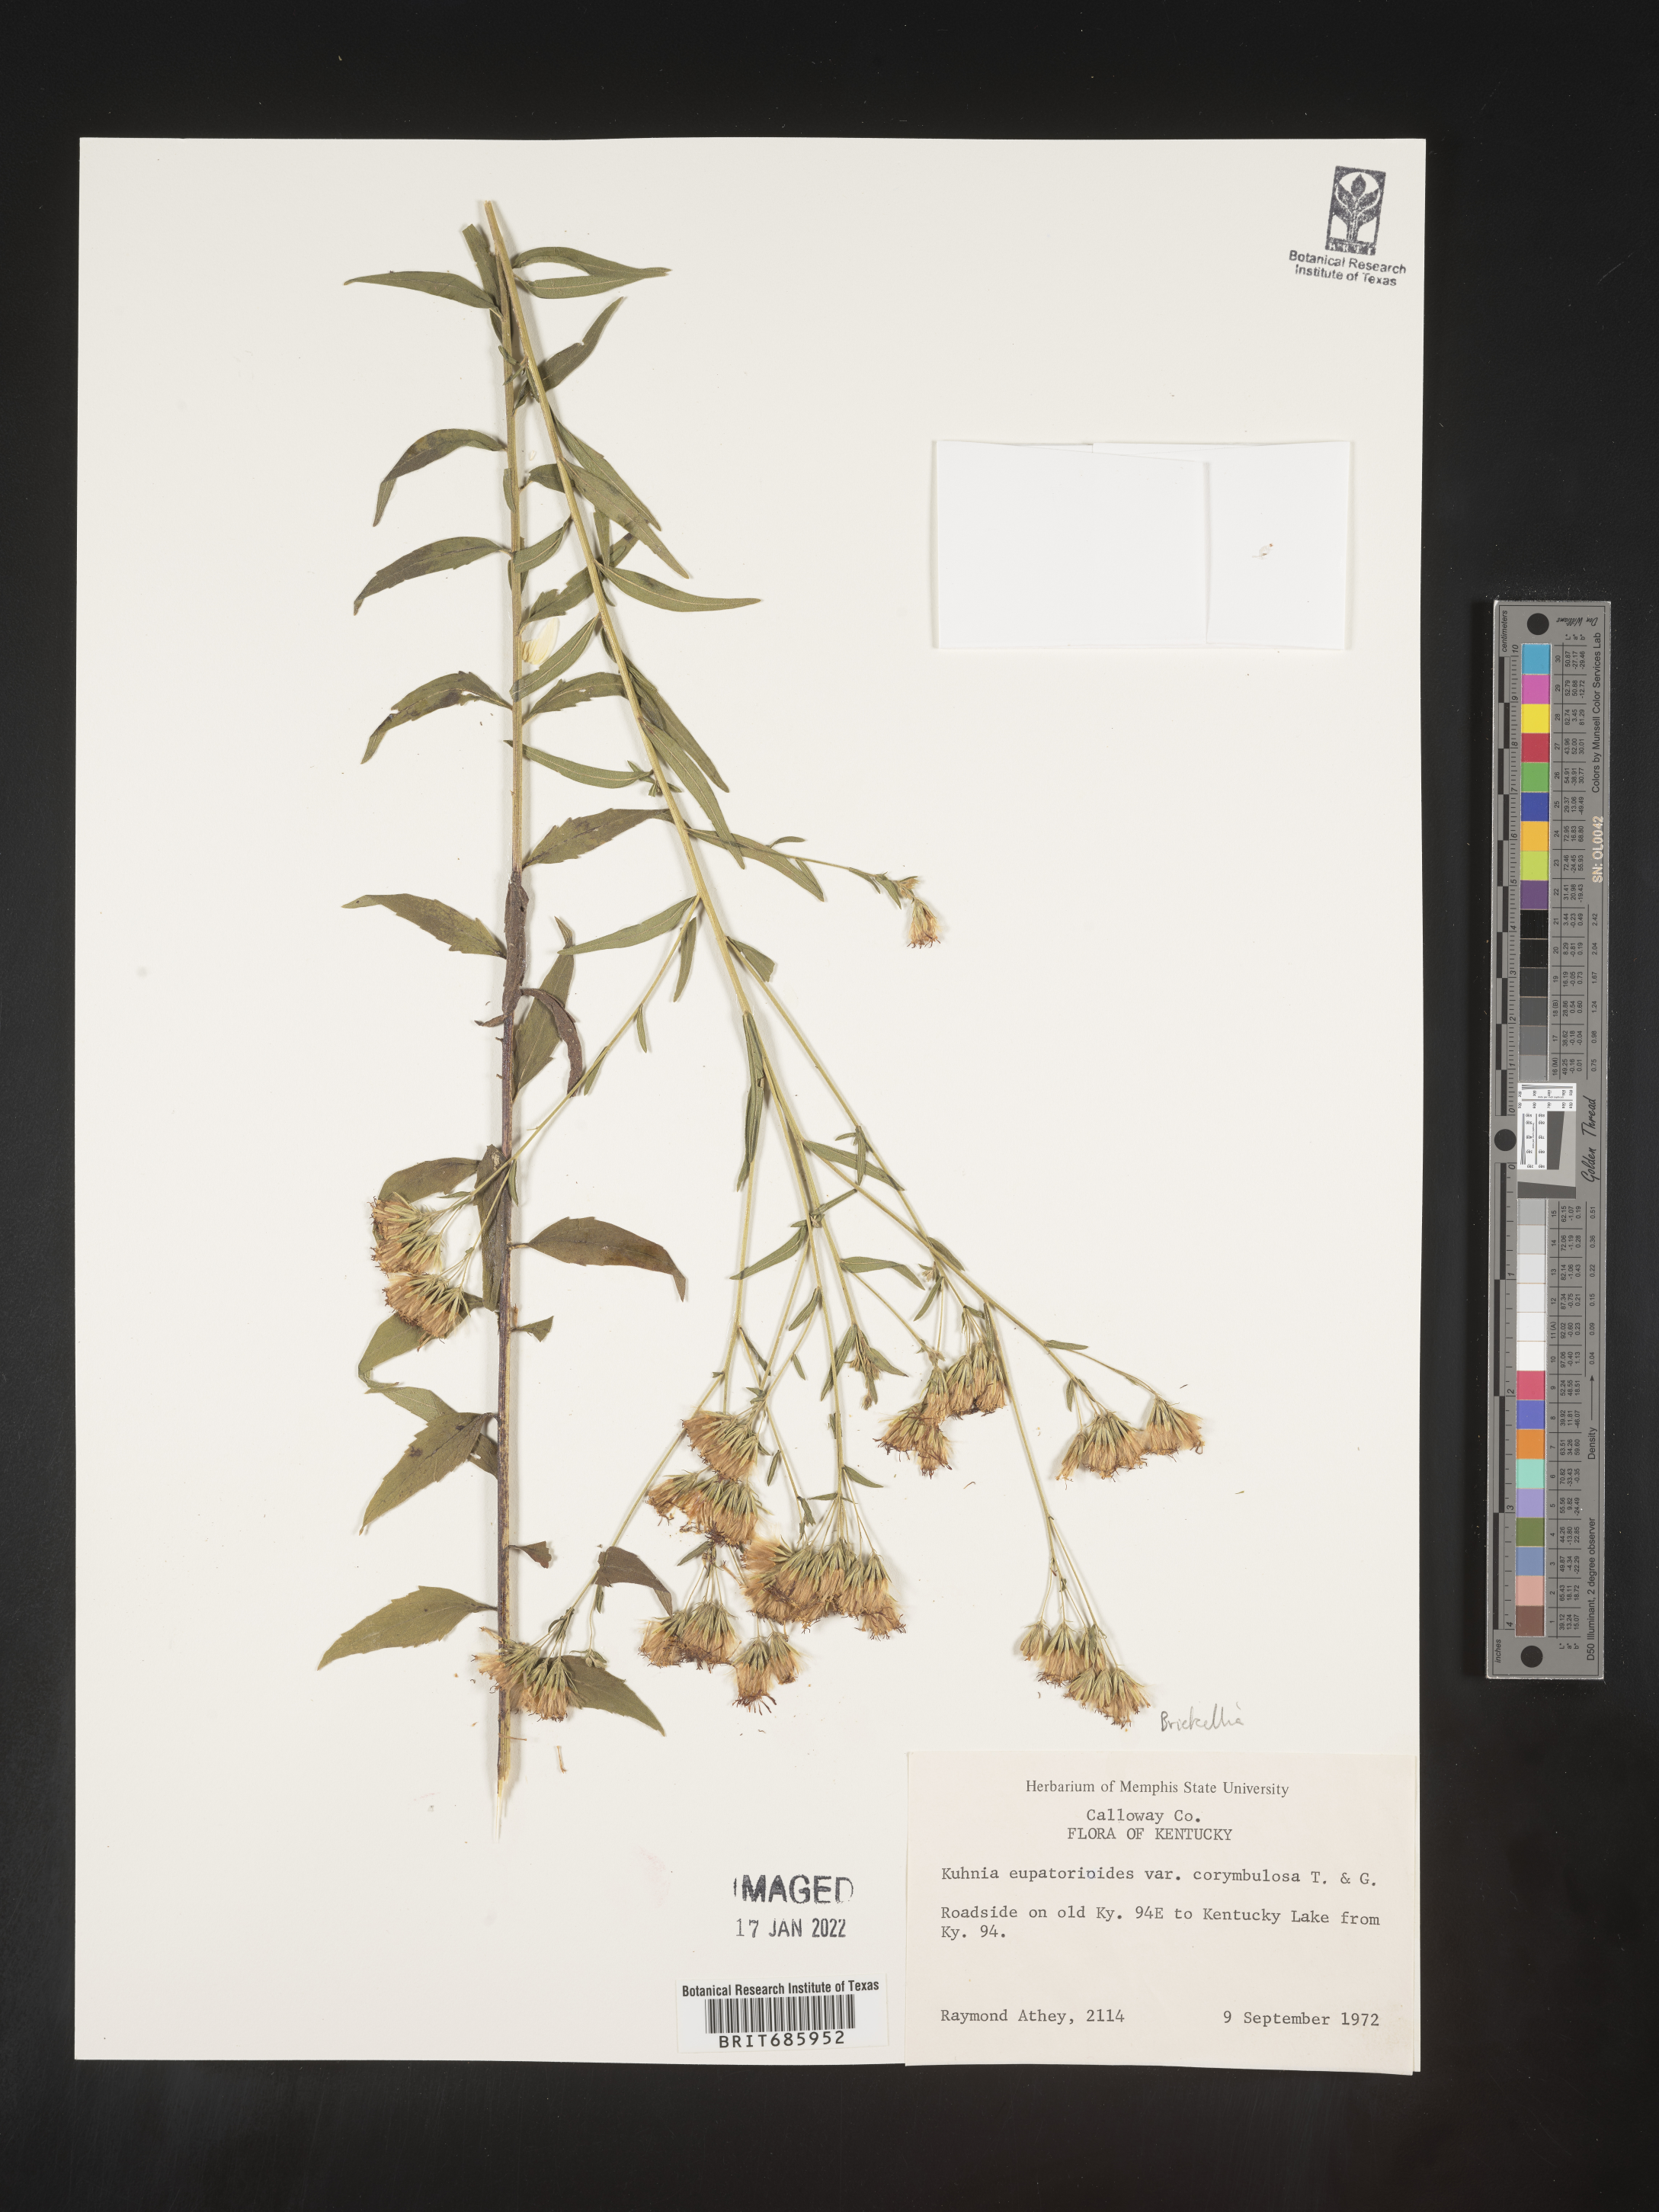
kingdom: Plantae
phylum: Tracheophyta
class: Magnoliopsida
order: Asterales
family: Asteraceae
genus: Brickellia
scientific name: Brickellia eupatorioides
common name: False boneset
